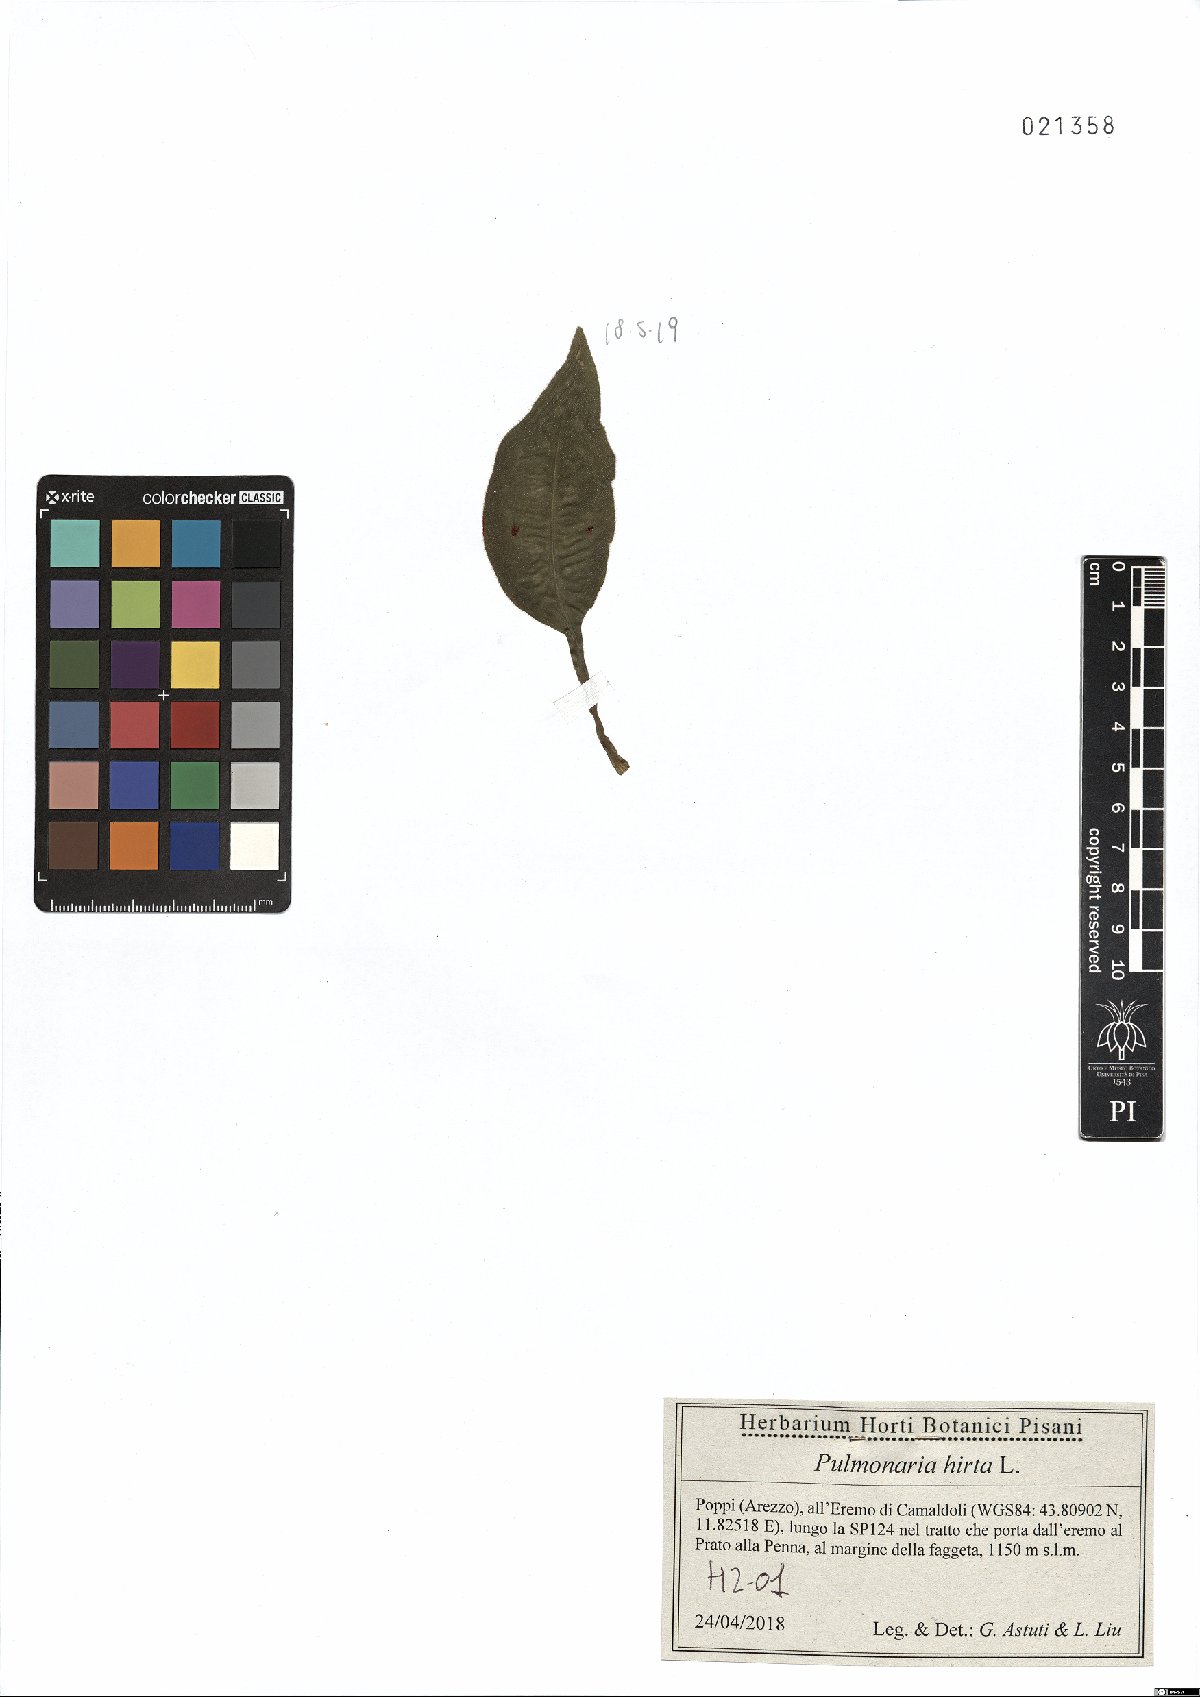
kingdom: Plantae
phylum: Tracheophyta
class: Magnoliopsida
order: Boraginales
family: Boraginaceae
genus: Pulmonaria
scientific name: Pulmonaria hirta
